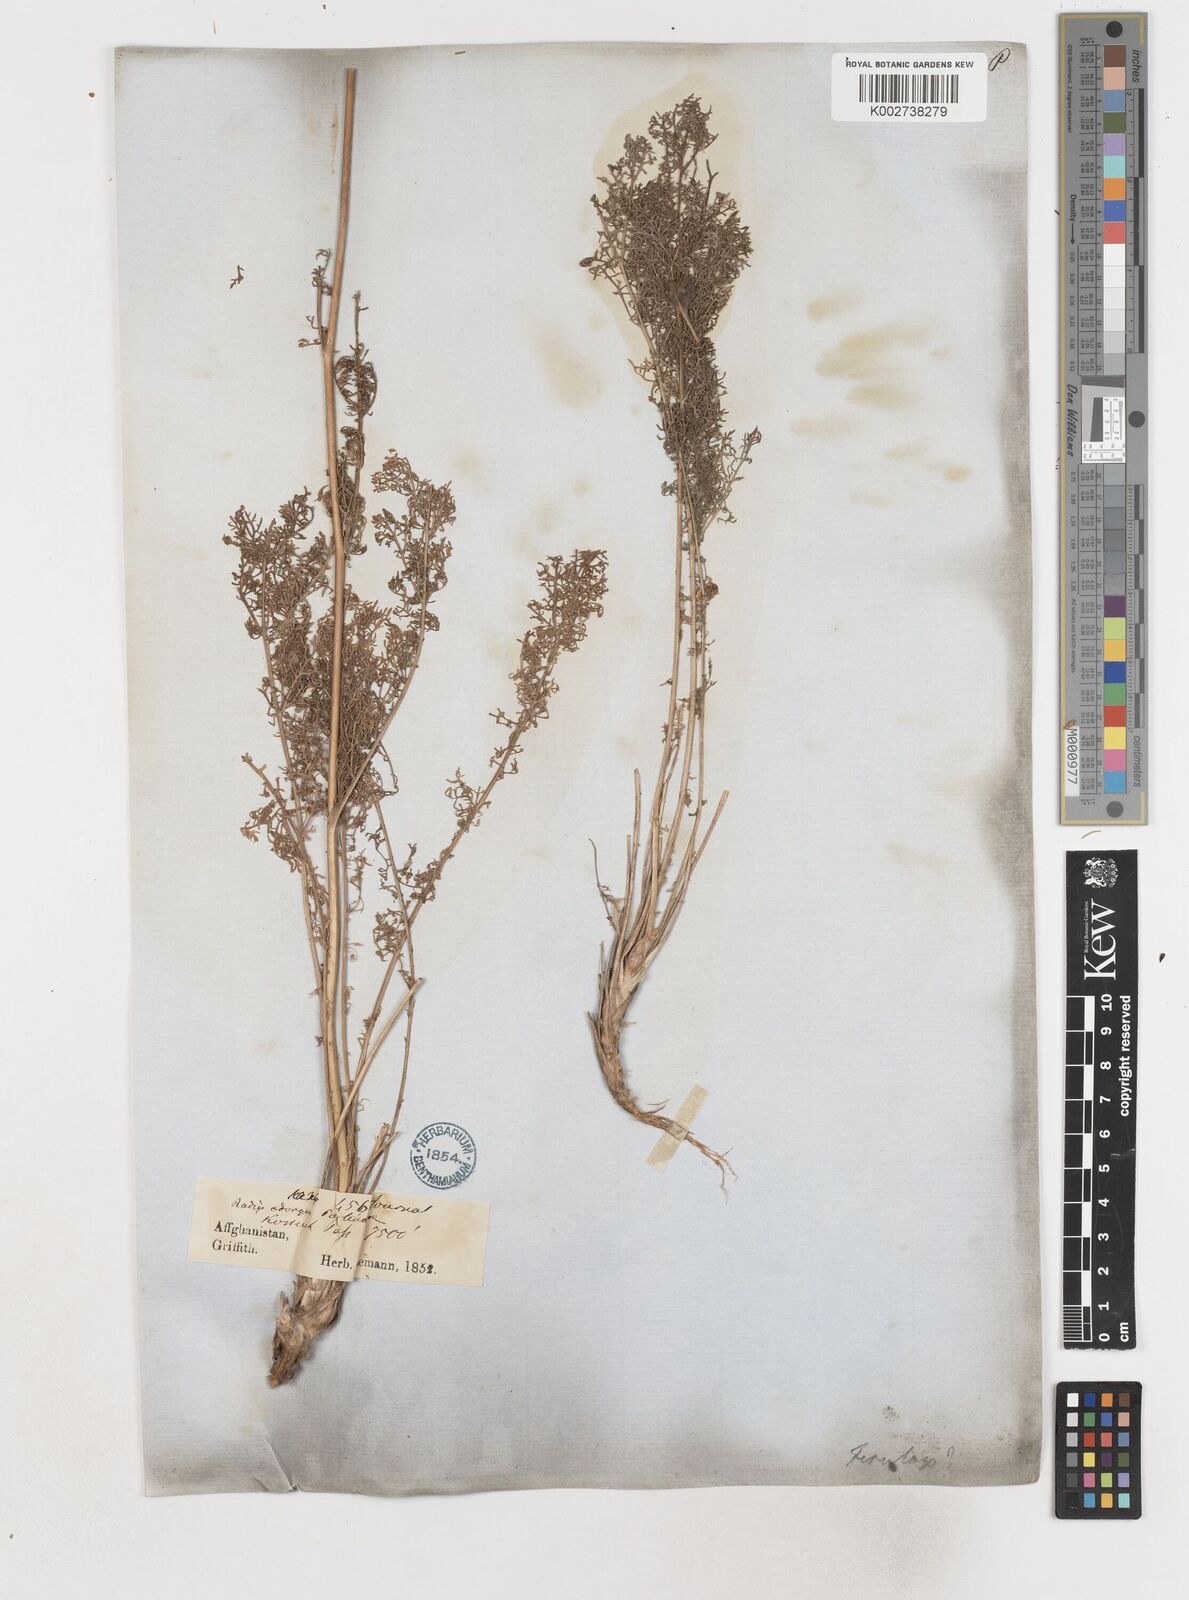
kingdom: Plantae
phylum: Tracheophyta
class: Magnoliopsida
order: Apiales
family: Apiaceae
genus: Prangos
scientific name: Prangos bucharica
